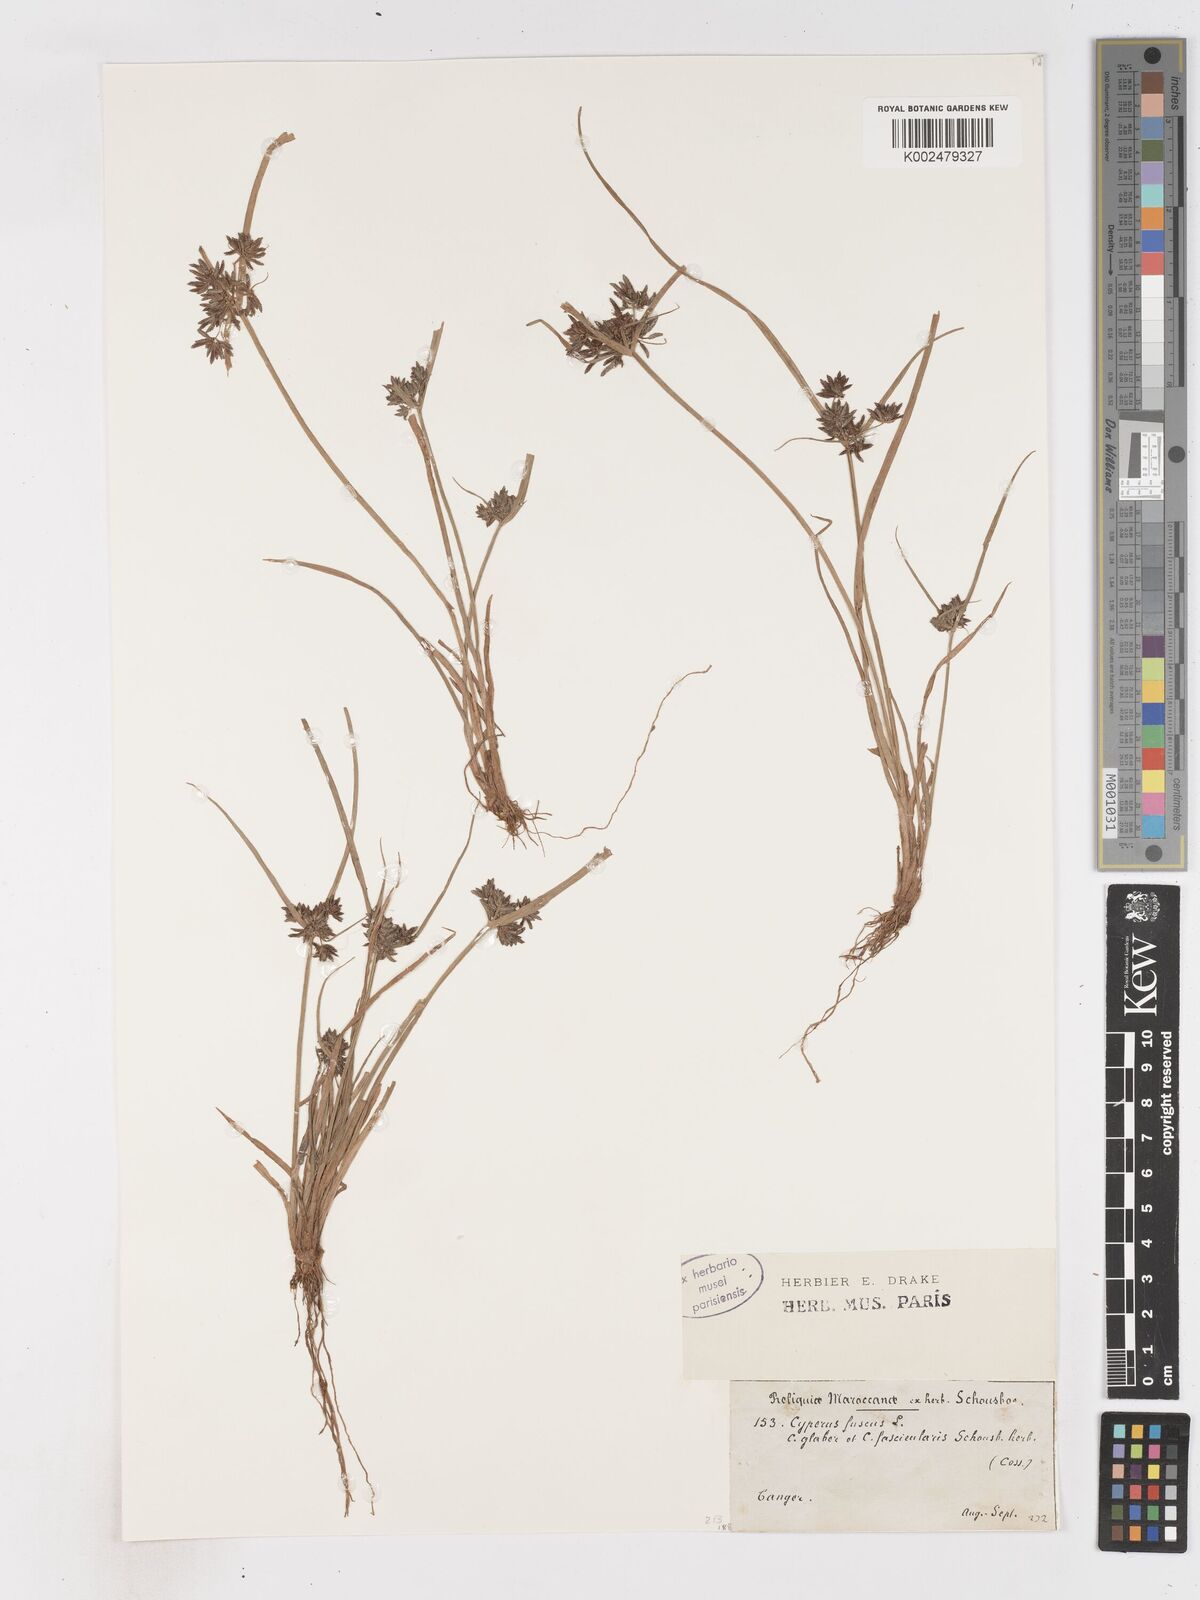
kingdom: Plantae
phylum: Tracheophyta
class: Liliopsida
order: Poales
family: Cyperaceae
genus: Cyperus
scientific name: Cyperus fuscus
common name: Brown galingale
